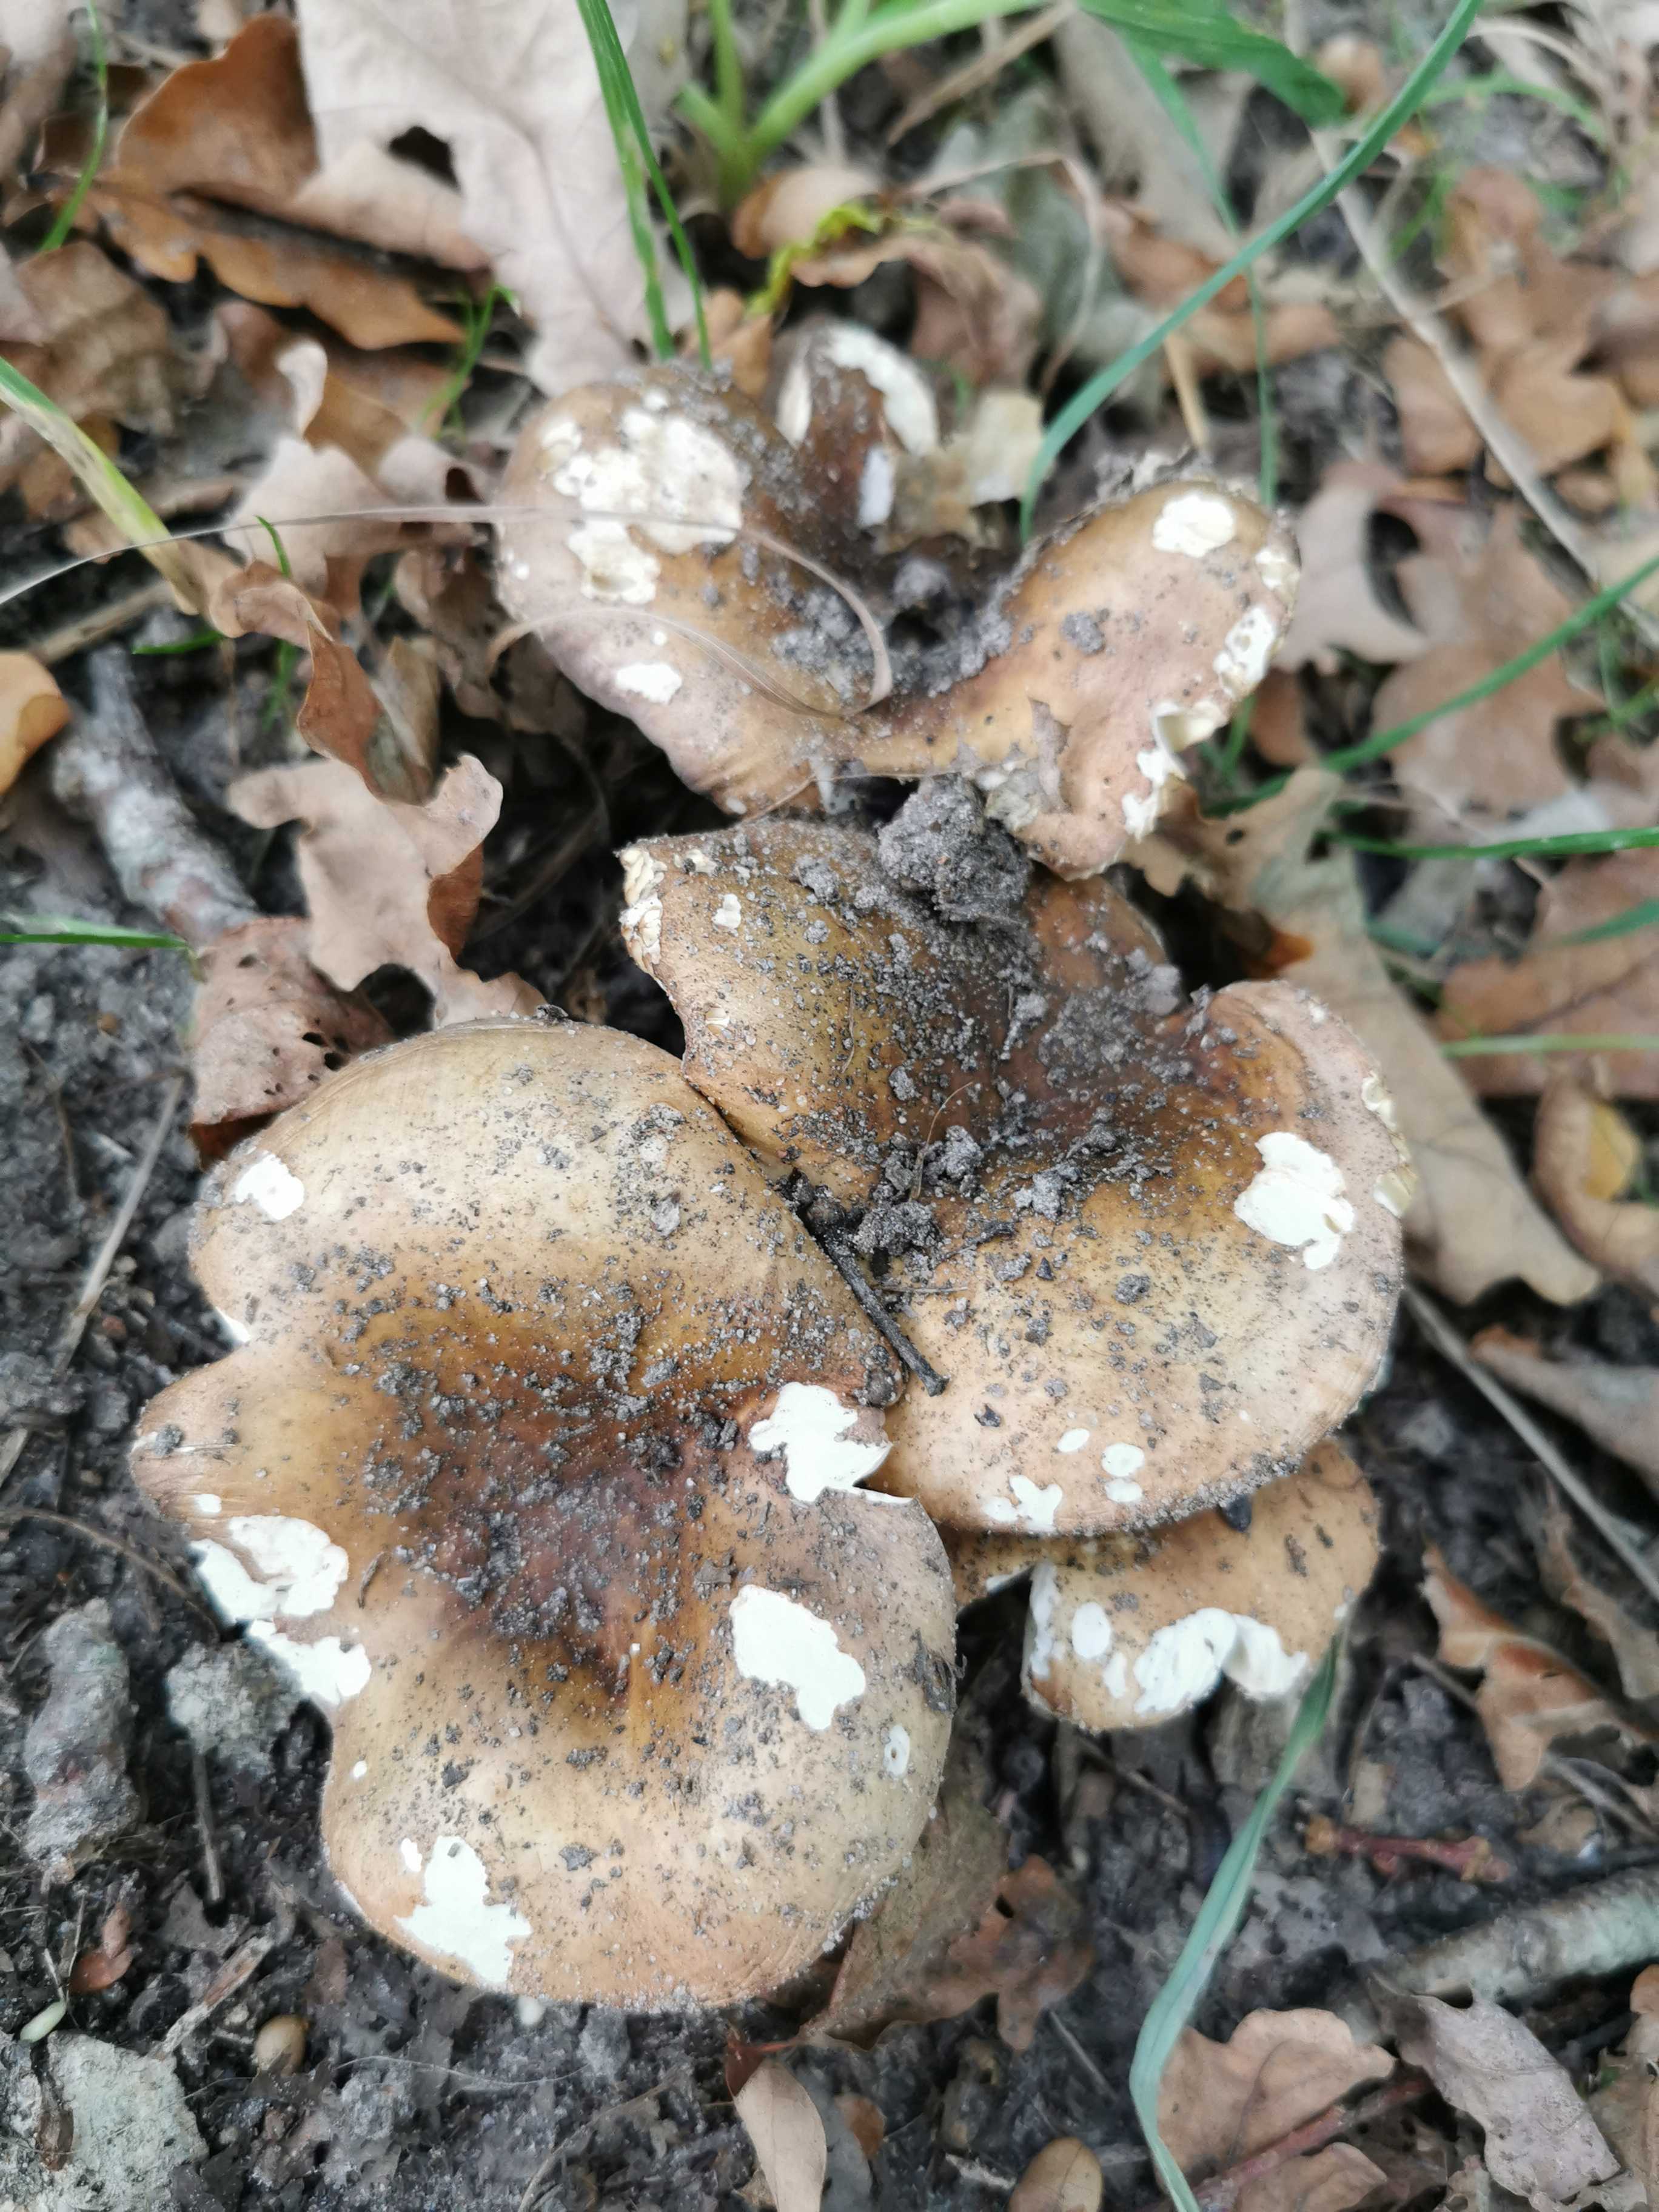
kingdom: Fungi
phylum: Basidiomycota
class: Agaricomycetes
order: Russulales
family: Russulaceae
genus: Russula
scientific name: Russula
